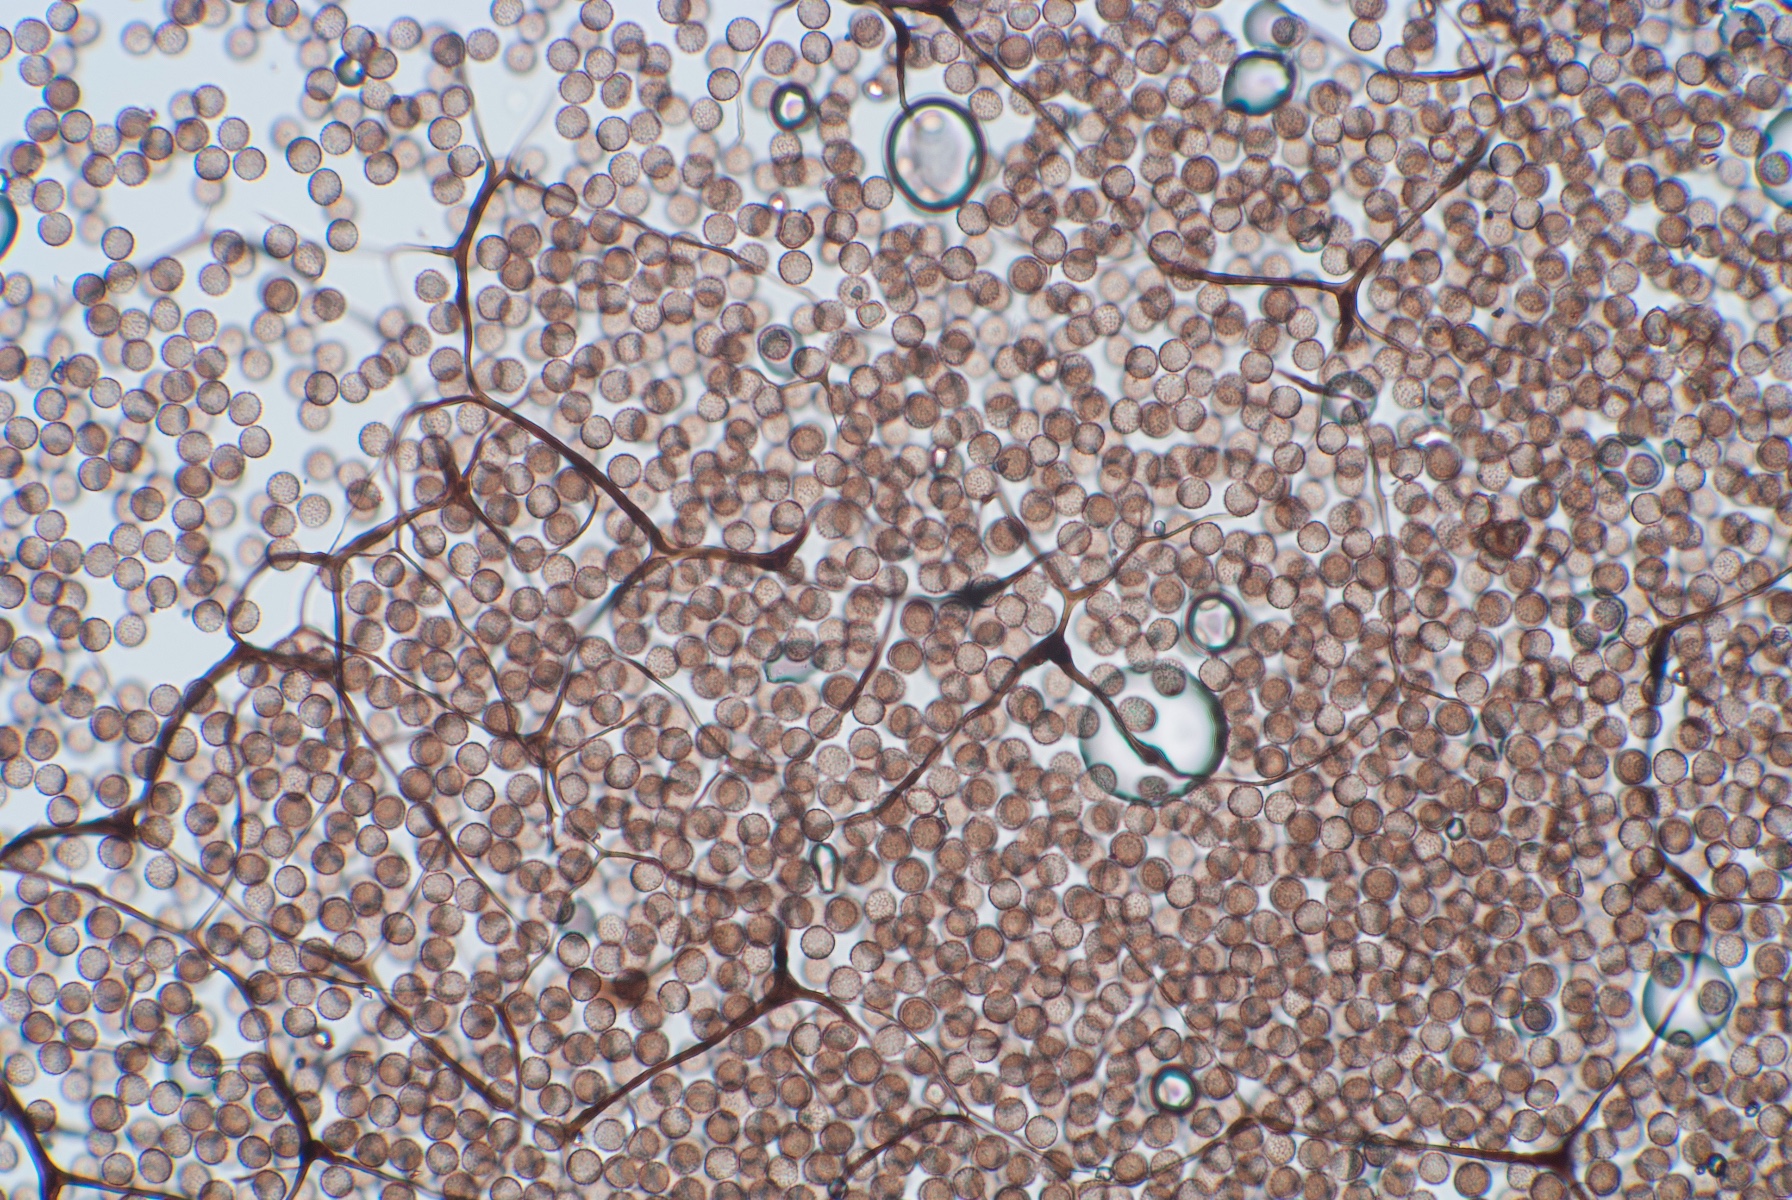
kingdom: Protozoa
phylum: Mycetozoa
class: Myxomycetes
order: Stemonitidales
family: Stemonitidaceae
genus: Symphytocarpus
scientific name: Symphytocarpus impexus
